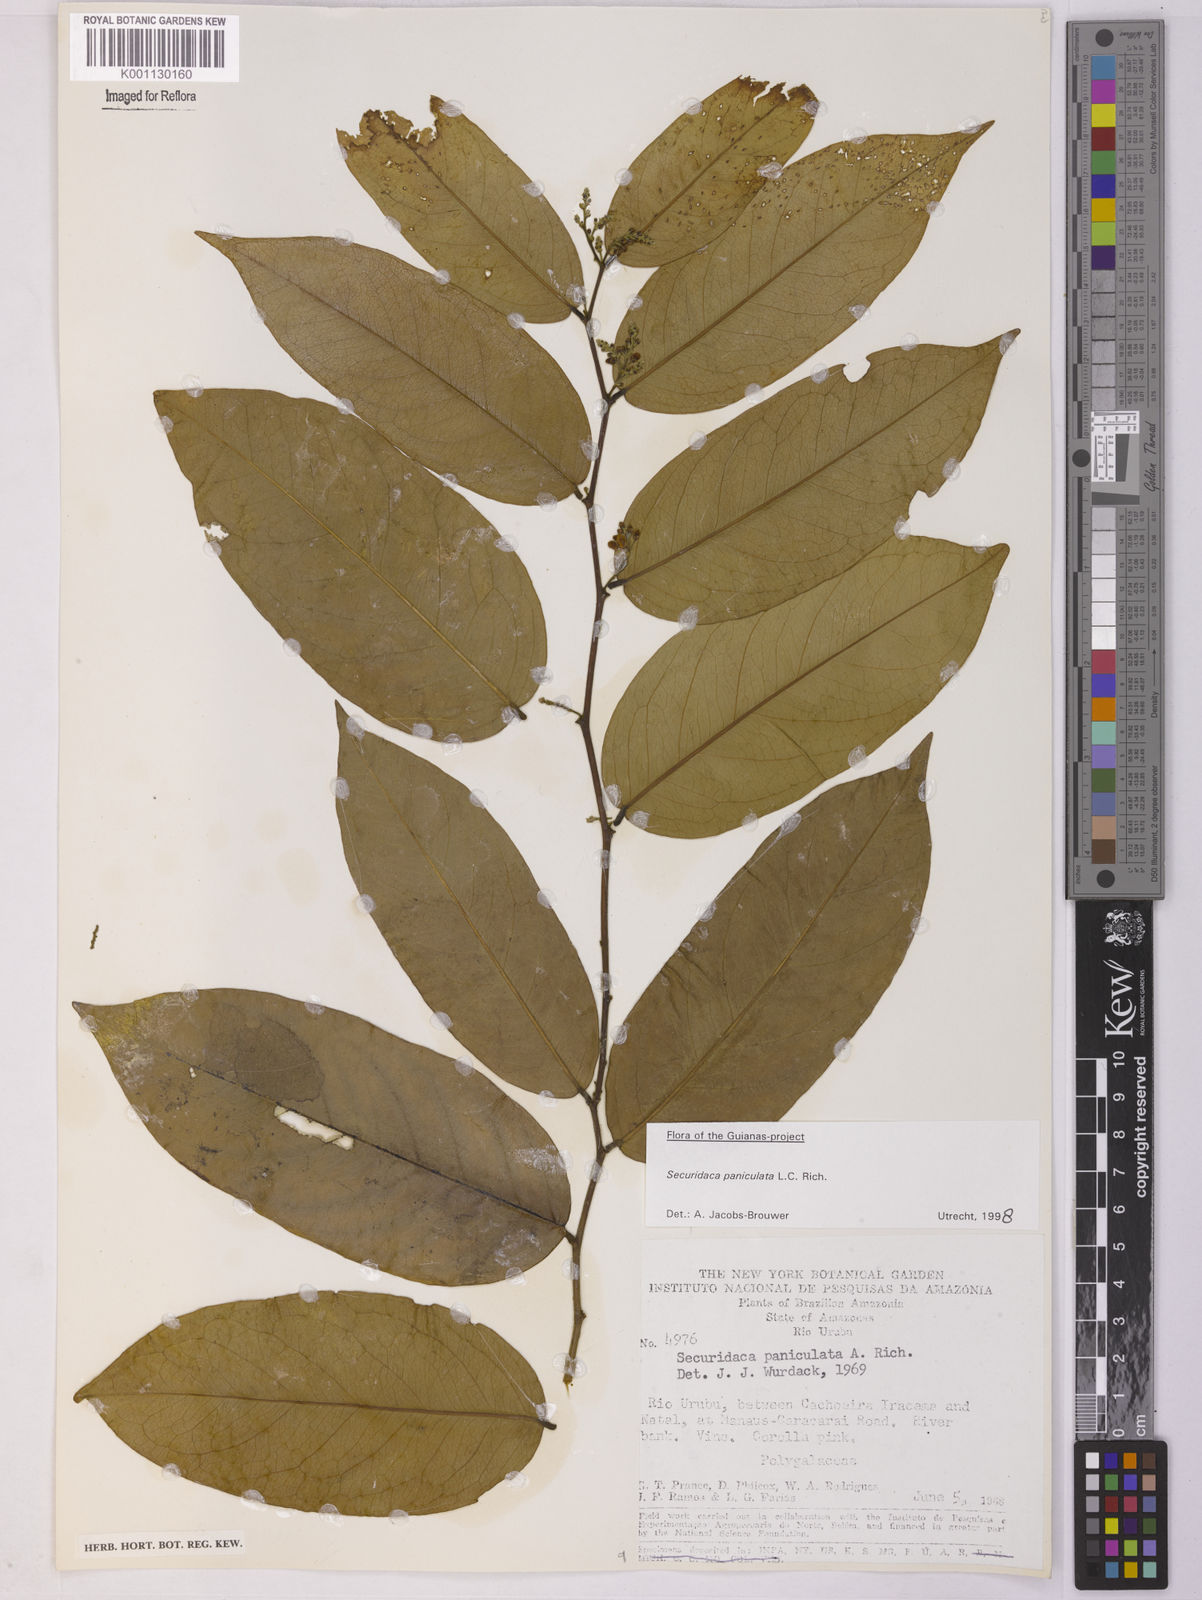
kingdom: Plantae
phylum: Tracheophyta
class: Magnoliopsida
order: Fabales
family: Polygalaceae
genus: Securidaca
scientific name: Securidaca paniculata
